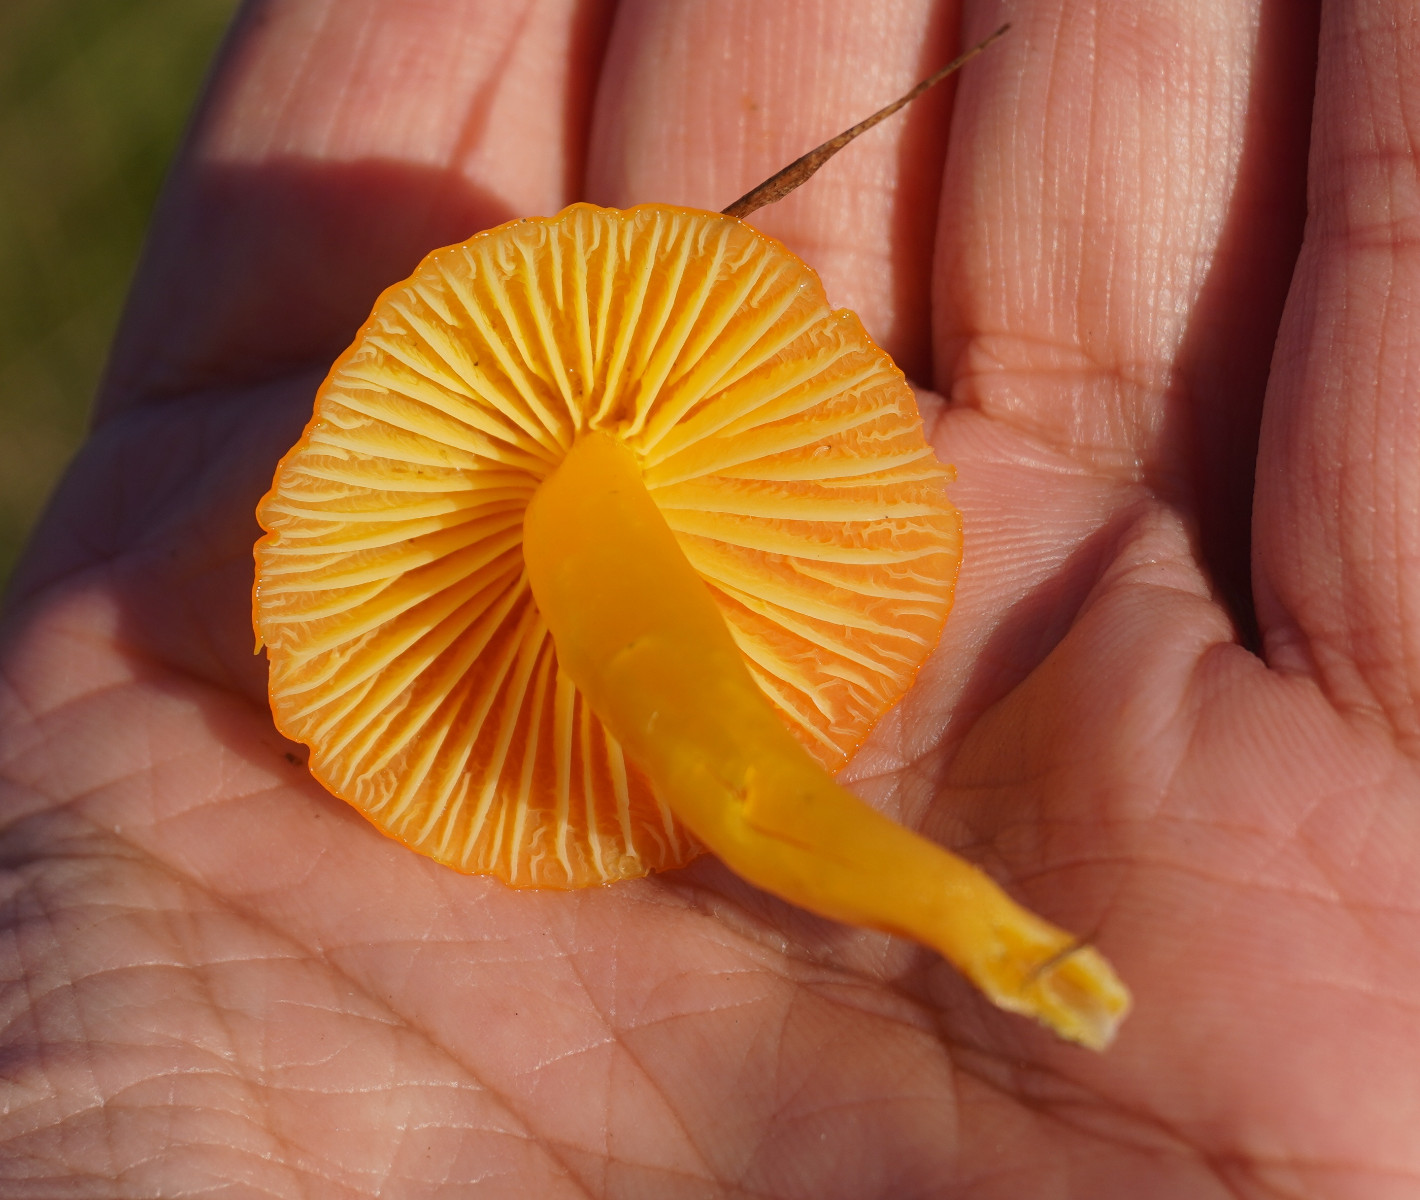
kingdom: Fungi
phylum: Basidiomycota
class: Agaricomycetes
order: Agaricales
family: Hygrophoraceae
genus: Hygrocybe
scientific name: Hygrocybe ceracea
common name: voksgul vokshat
